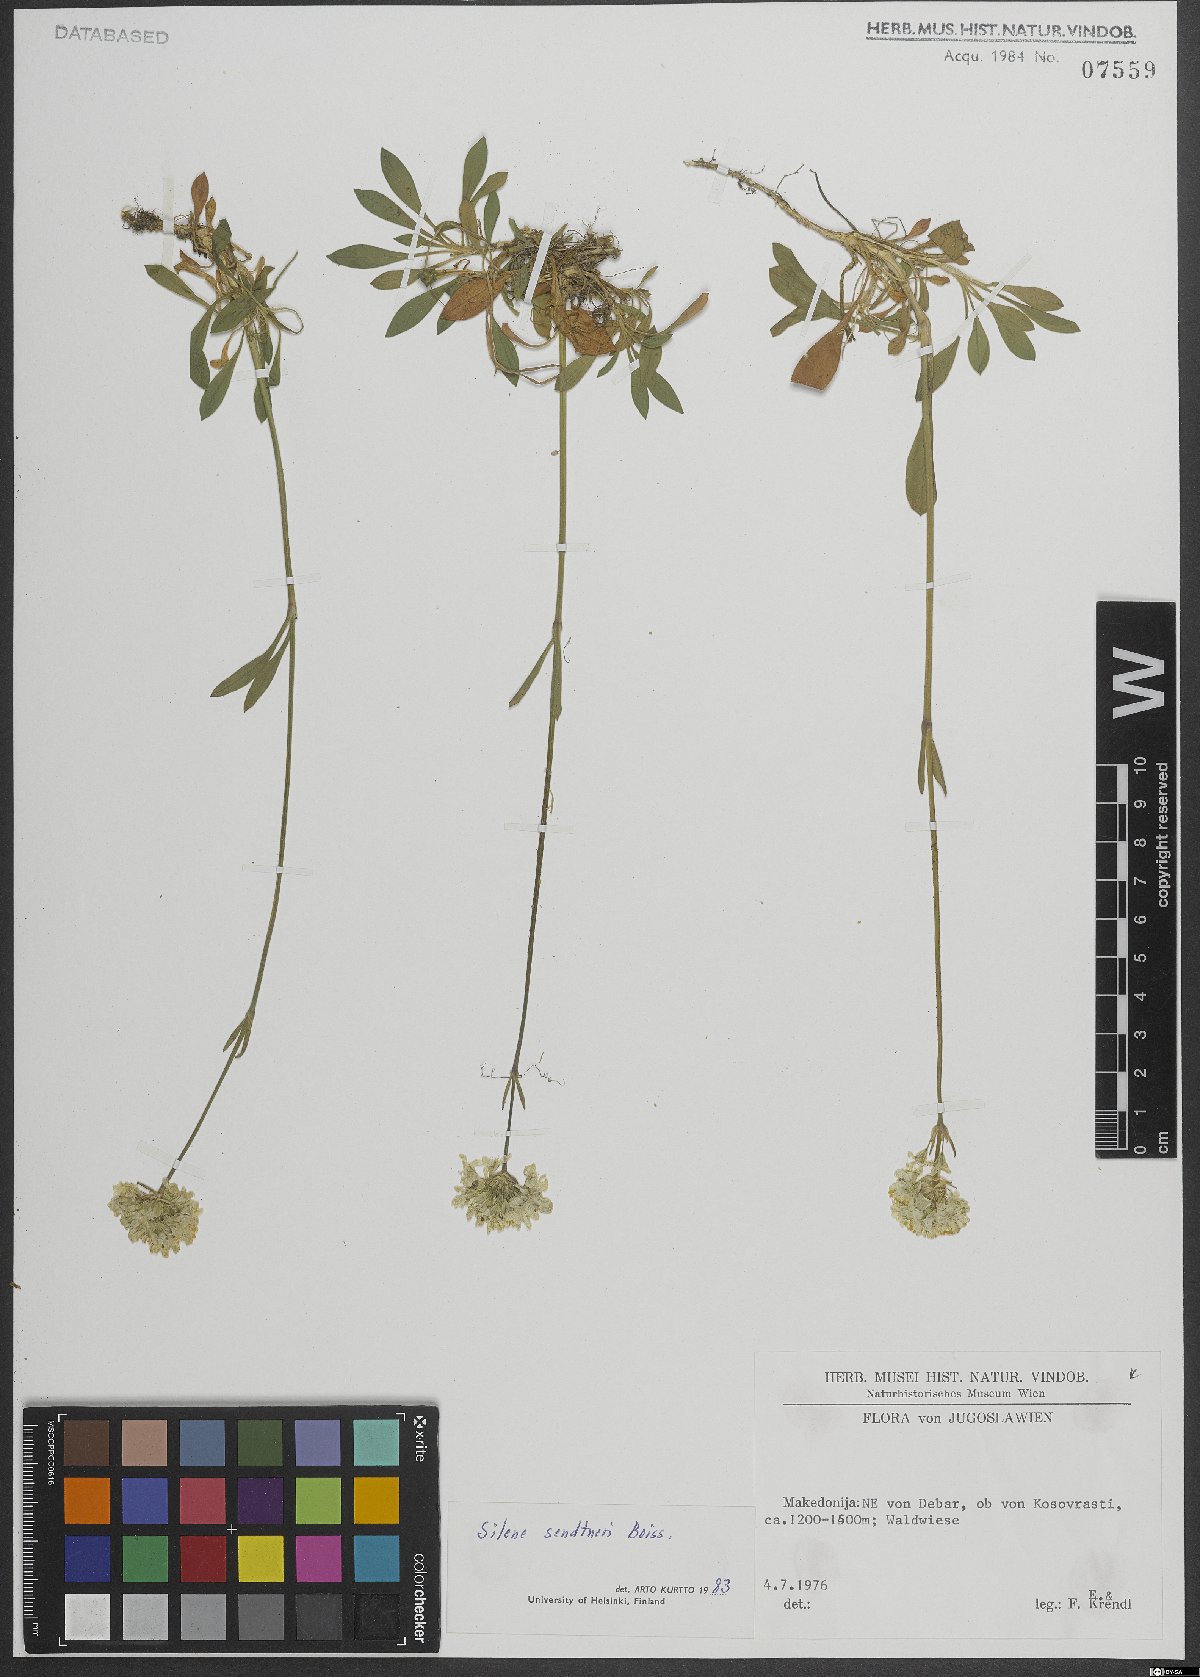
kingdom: Plantae
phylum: Tracheophyta
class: Magnoliopsida
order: Caryophyllales
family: Caryophyllaceae
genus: Silene
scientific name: Silene sendtneri
